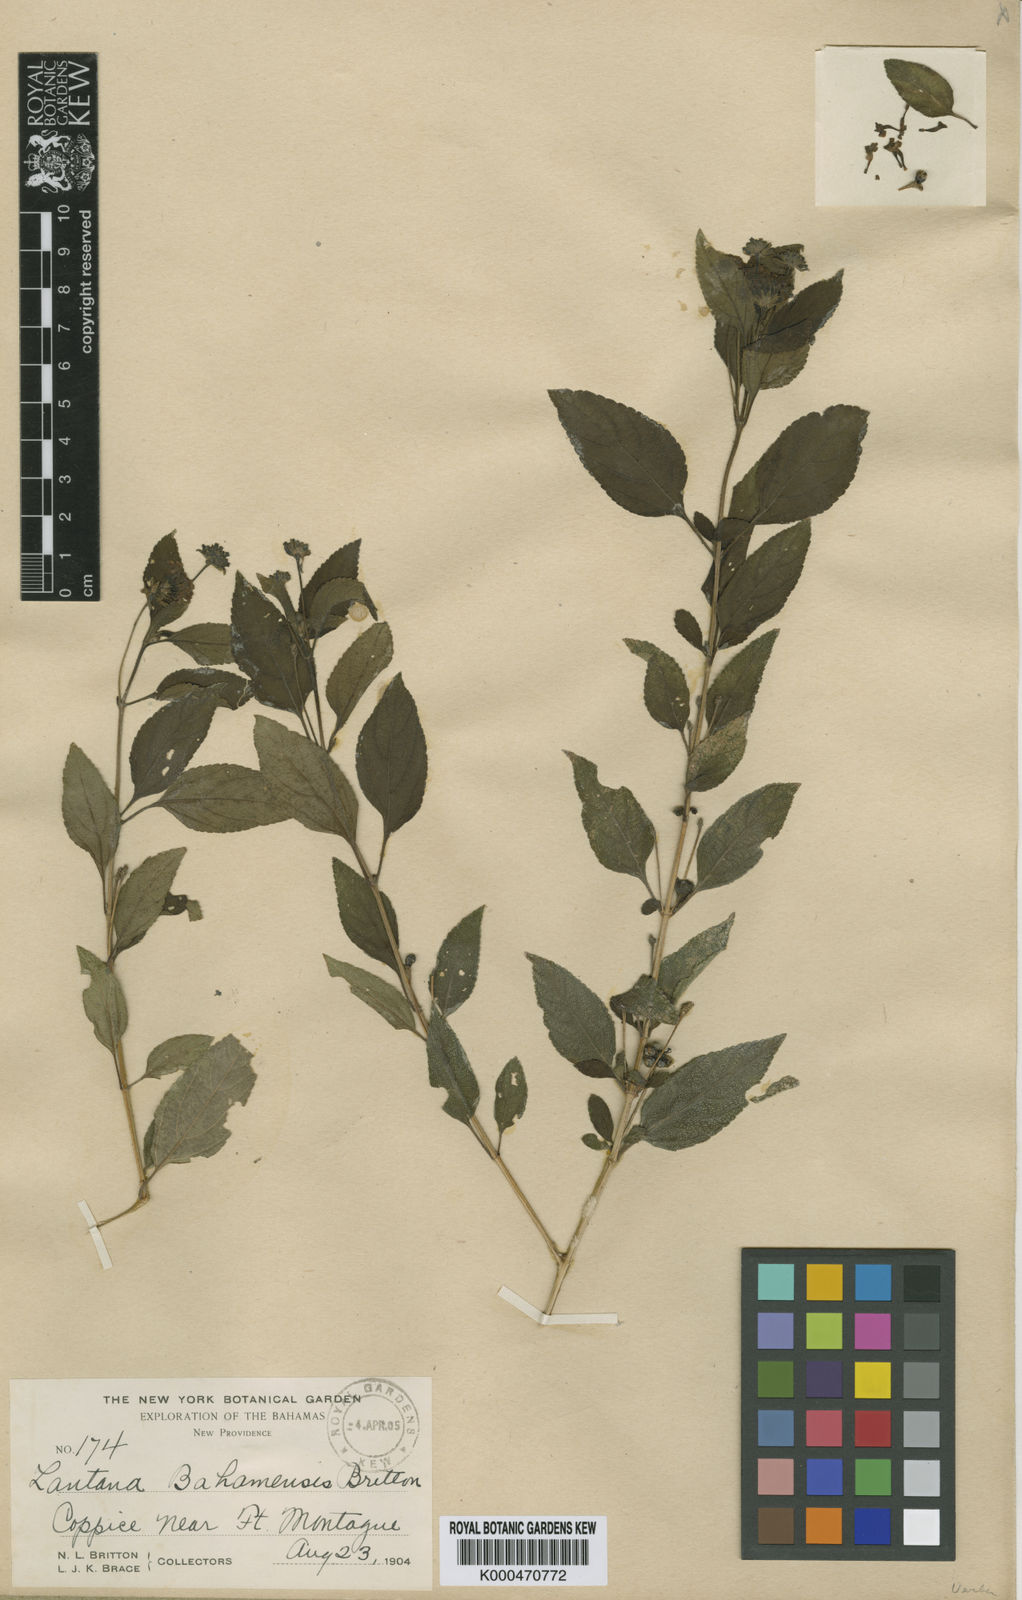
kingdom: Plantae
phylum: Tracheophyta
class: Magnoliopsida
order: Lamiales
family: Verbenaceae
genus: Lantana
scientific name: Lantana bahamensis
